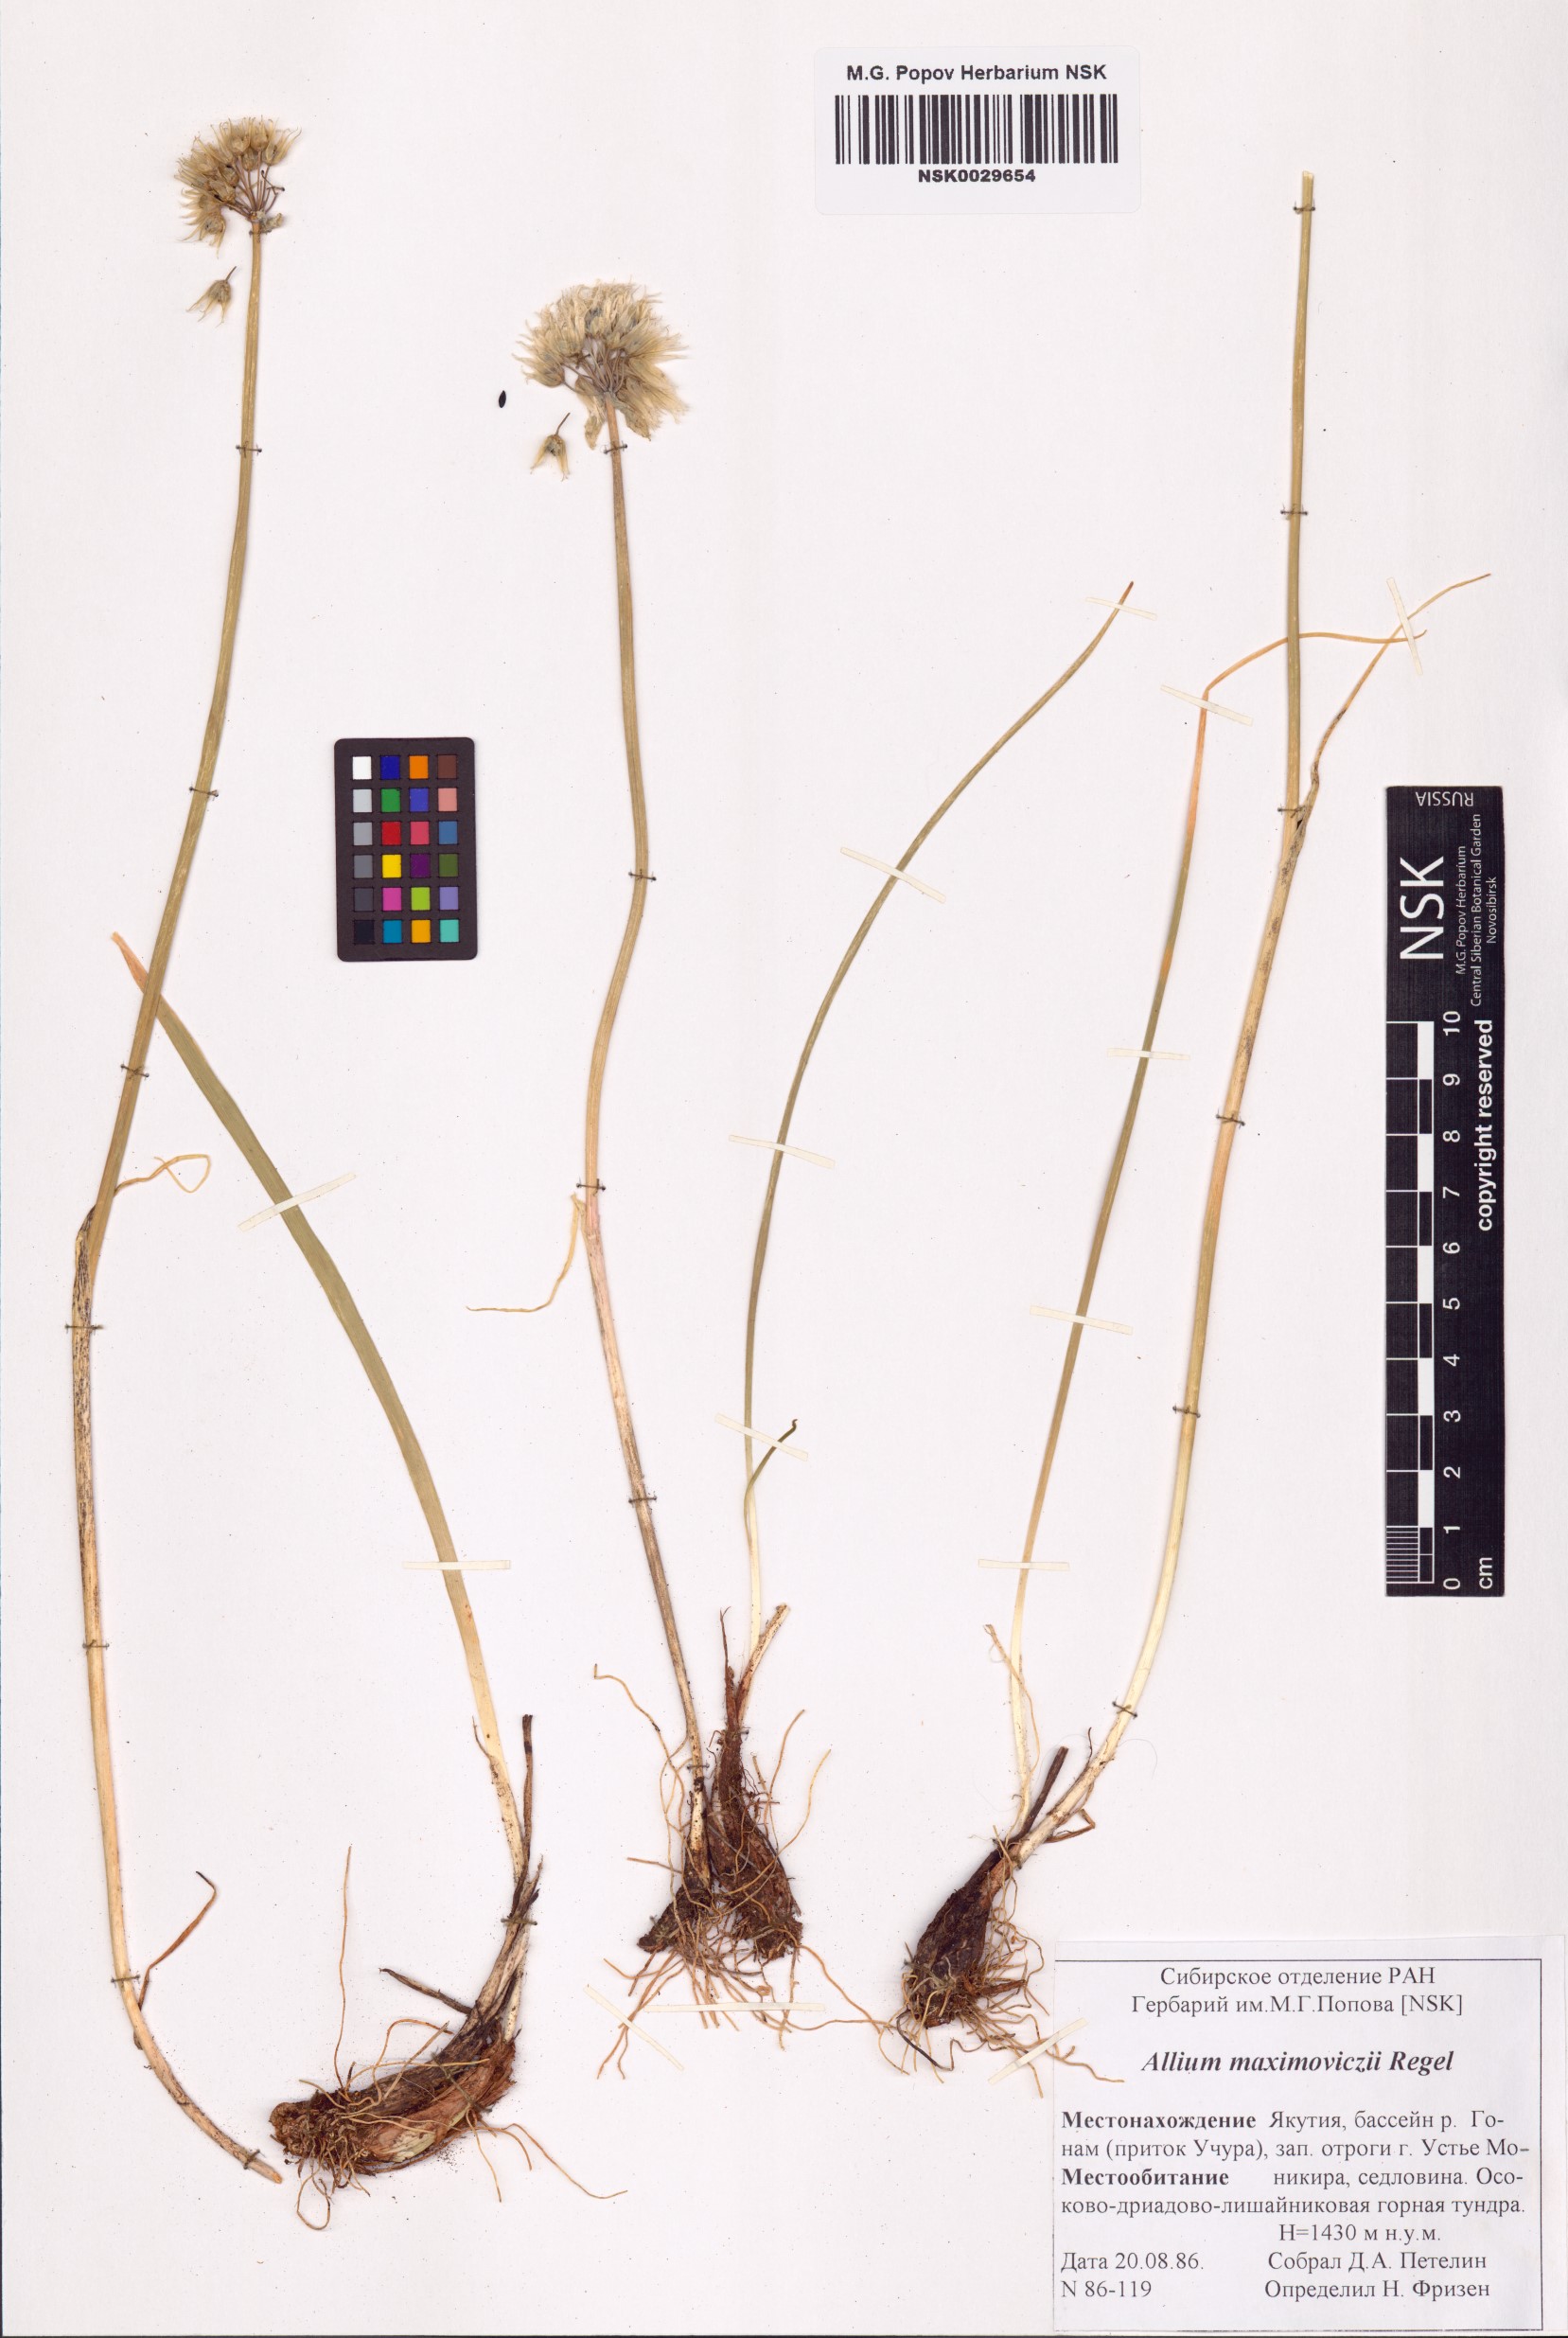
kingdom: Plantae
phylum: Tracheophyta
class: Liliopsida
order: Asparagales
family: Amaryllidaceae
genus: Allium
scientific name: Allium maximowiczii
